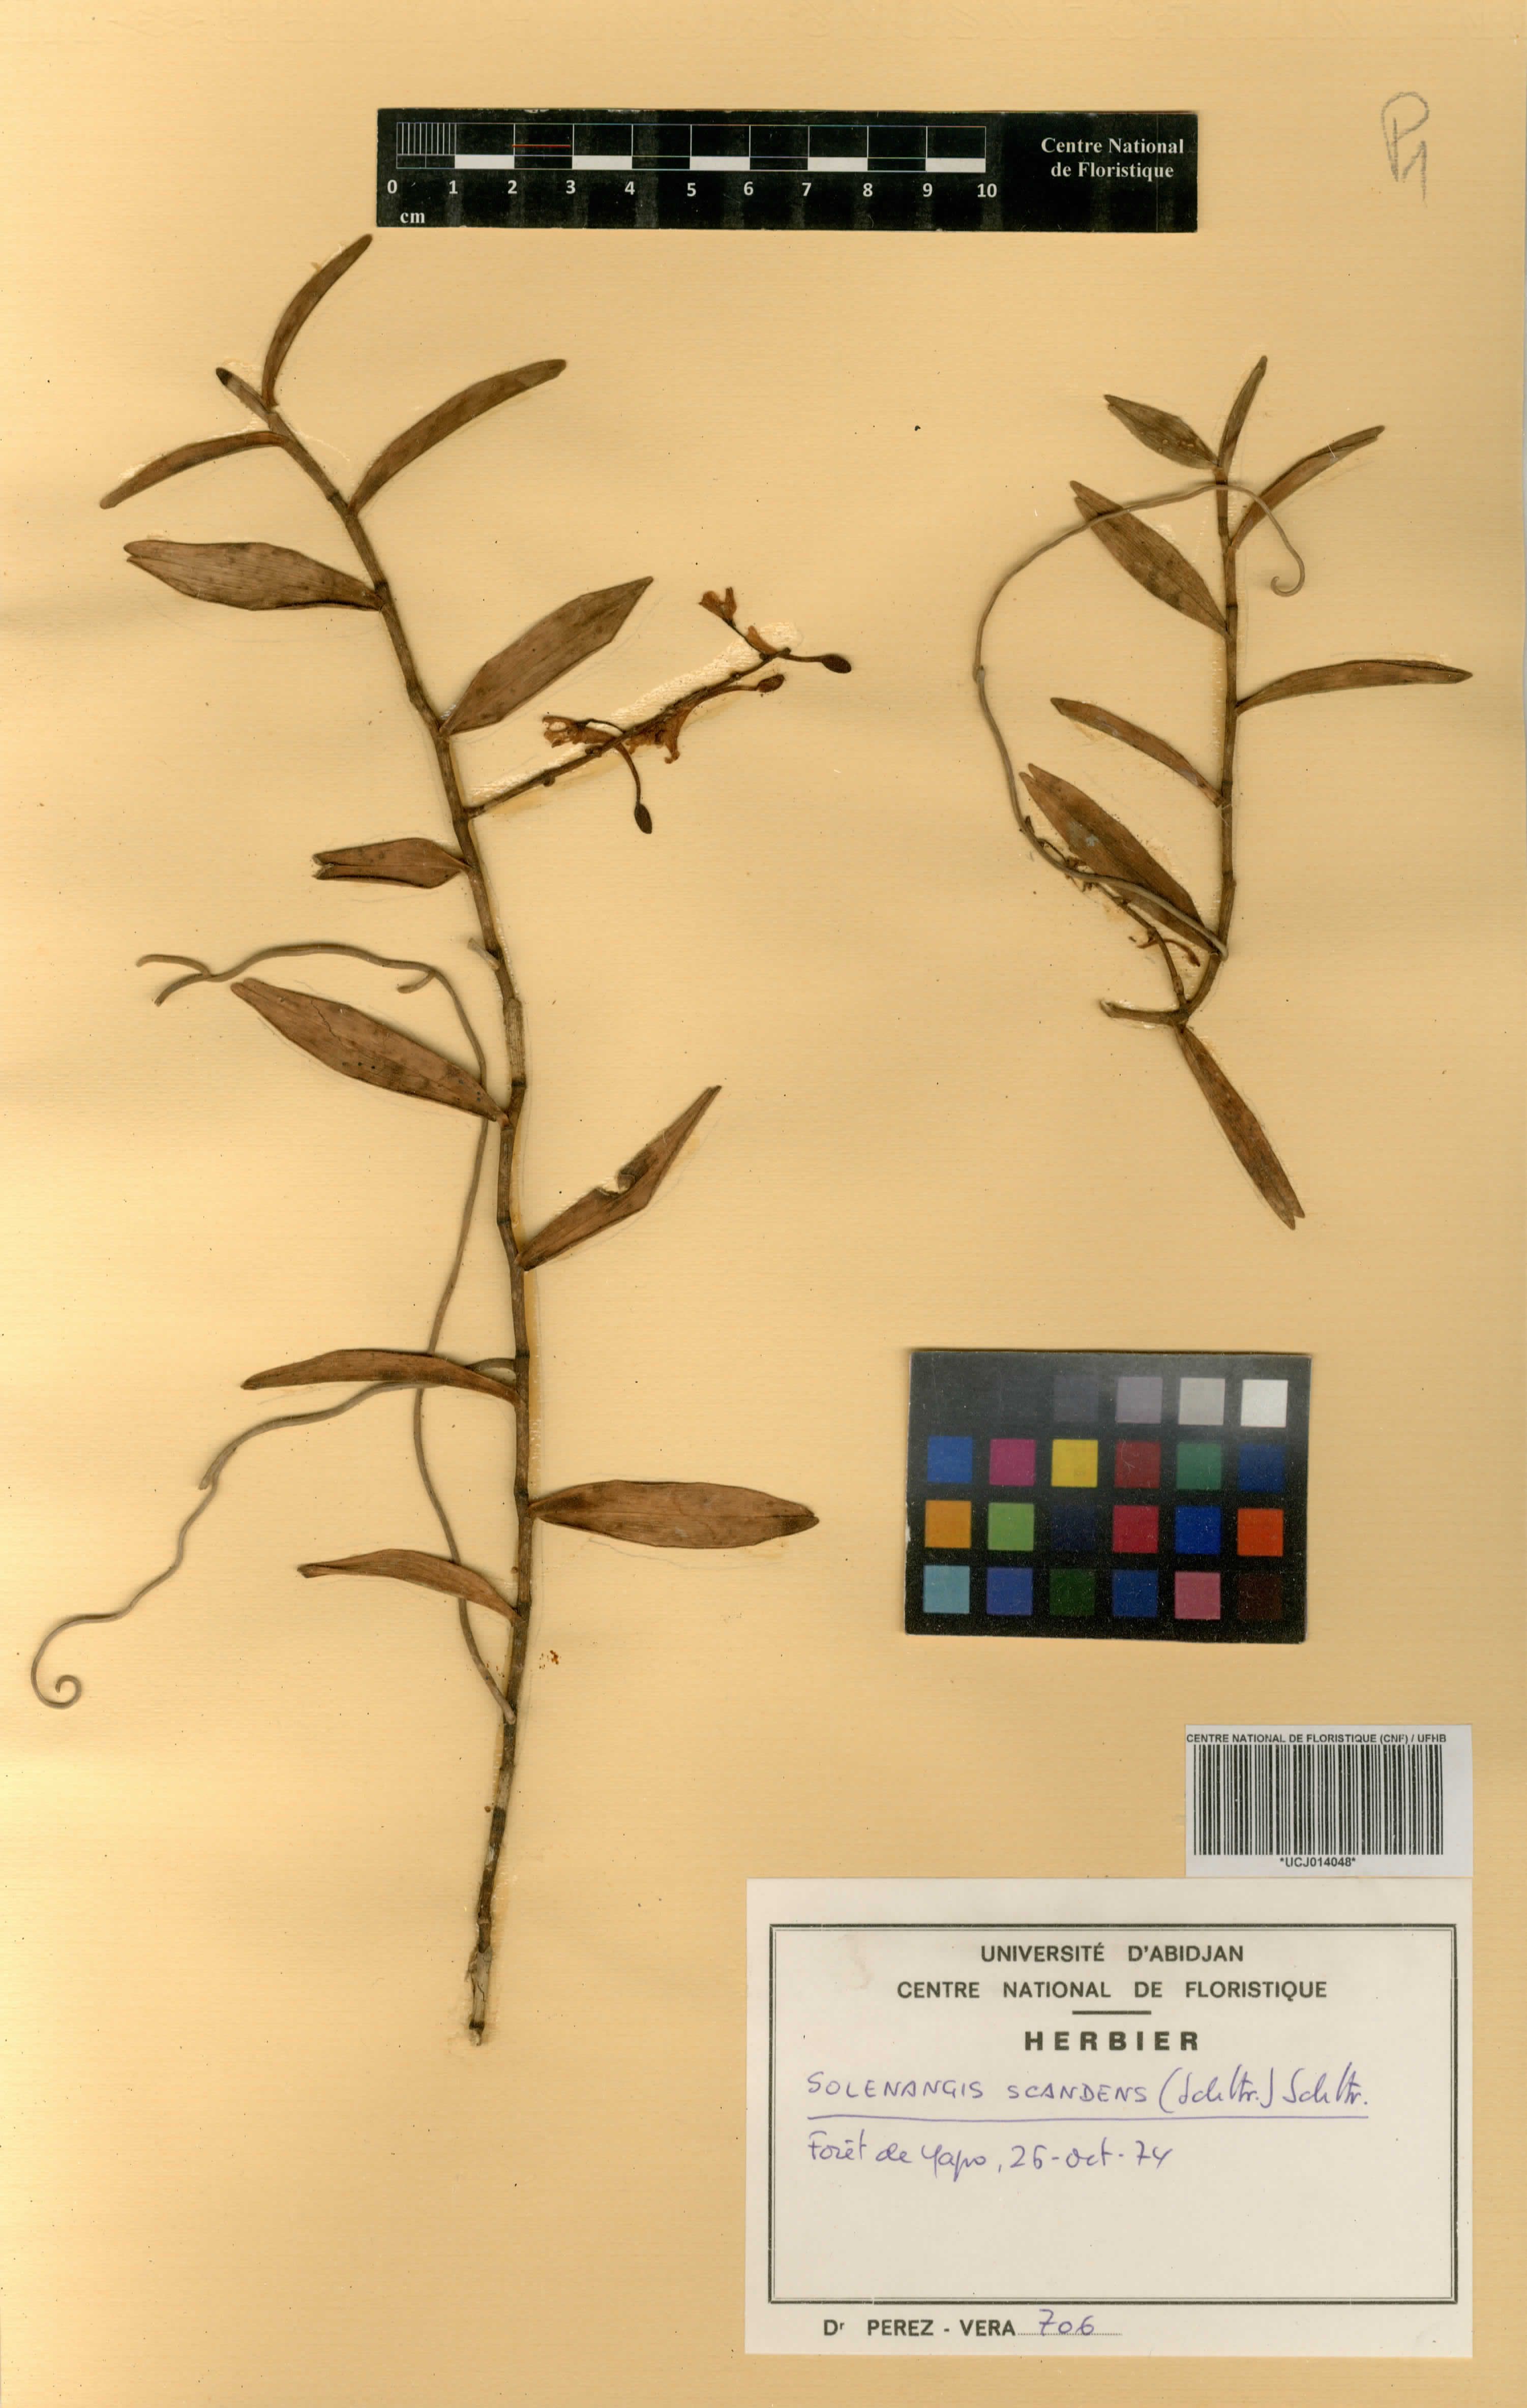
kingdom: Plantae
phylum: Tracheophyta
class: Liliopsida
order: Asparagales
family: Orchidaceae
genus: Solenangis
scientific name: Solenangis scandens
